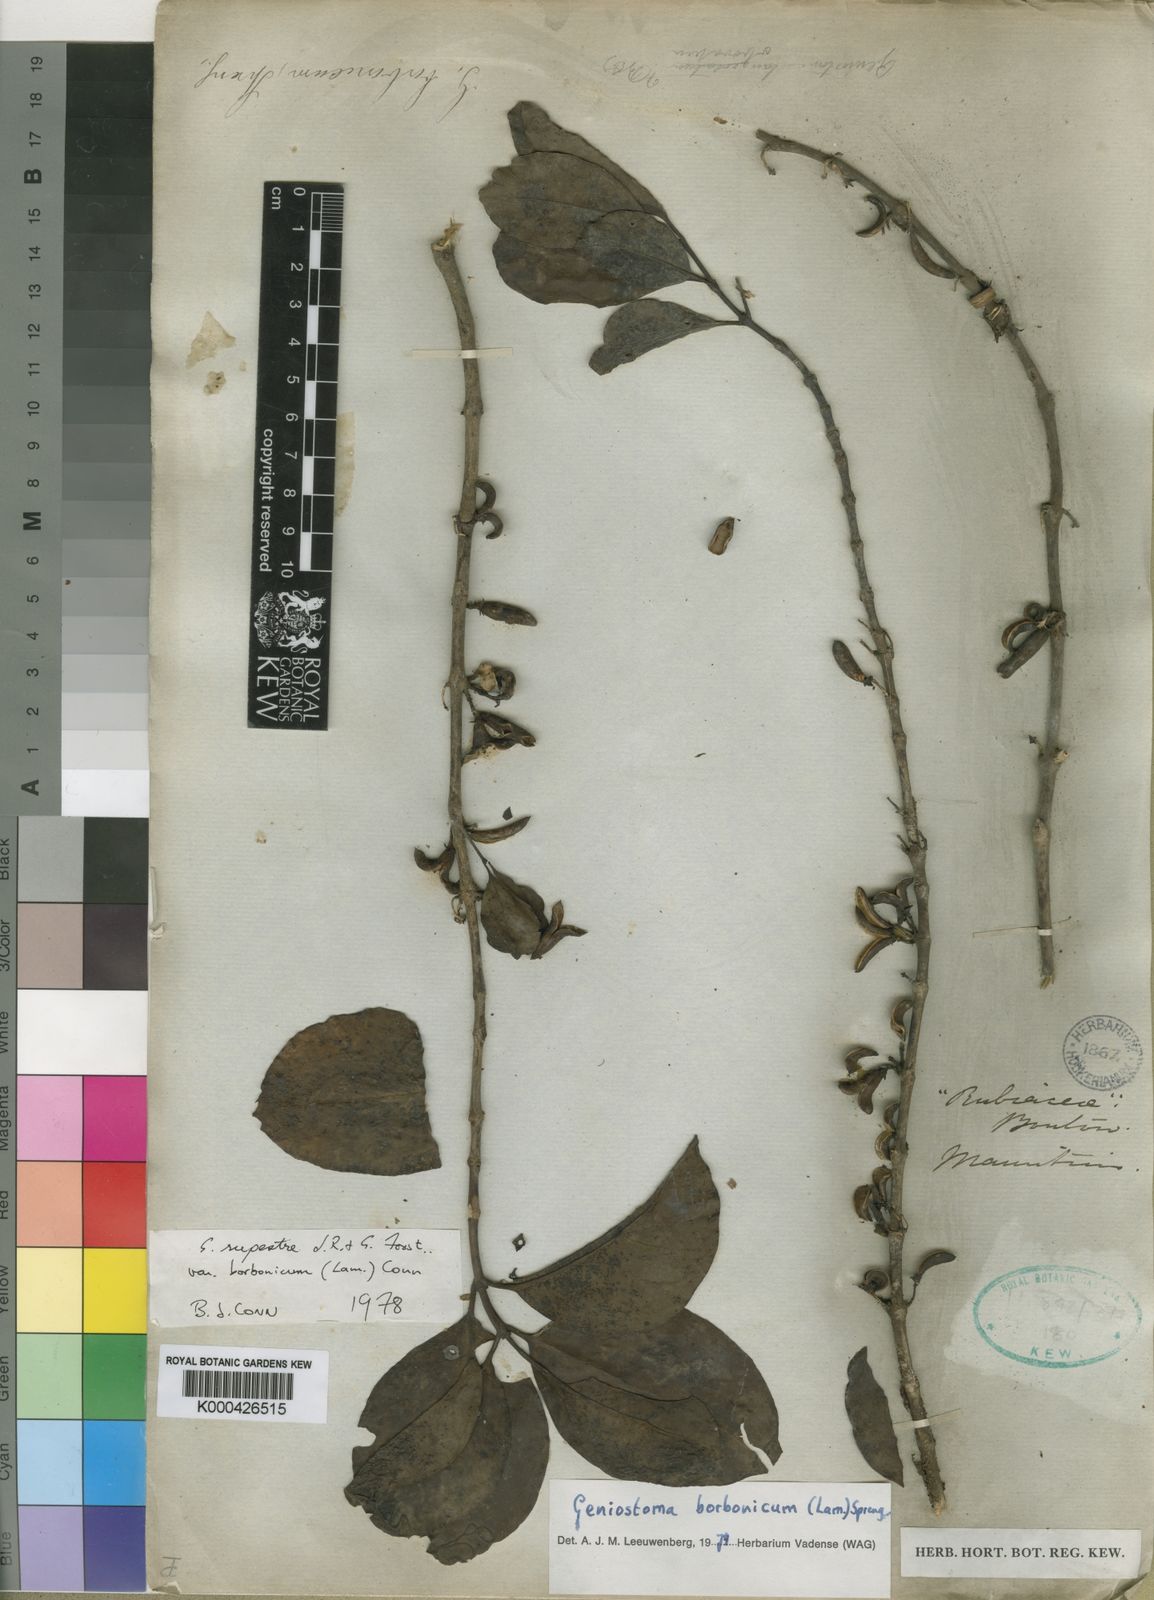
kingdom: Plantae
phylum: Tracheophyta
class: Magnoliopsida
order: Gentianales
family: Loganiaceae
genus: Geniostoma
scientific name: Geniostoma rupestre
